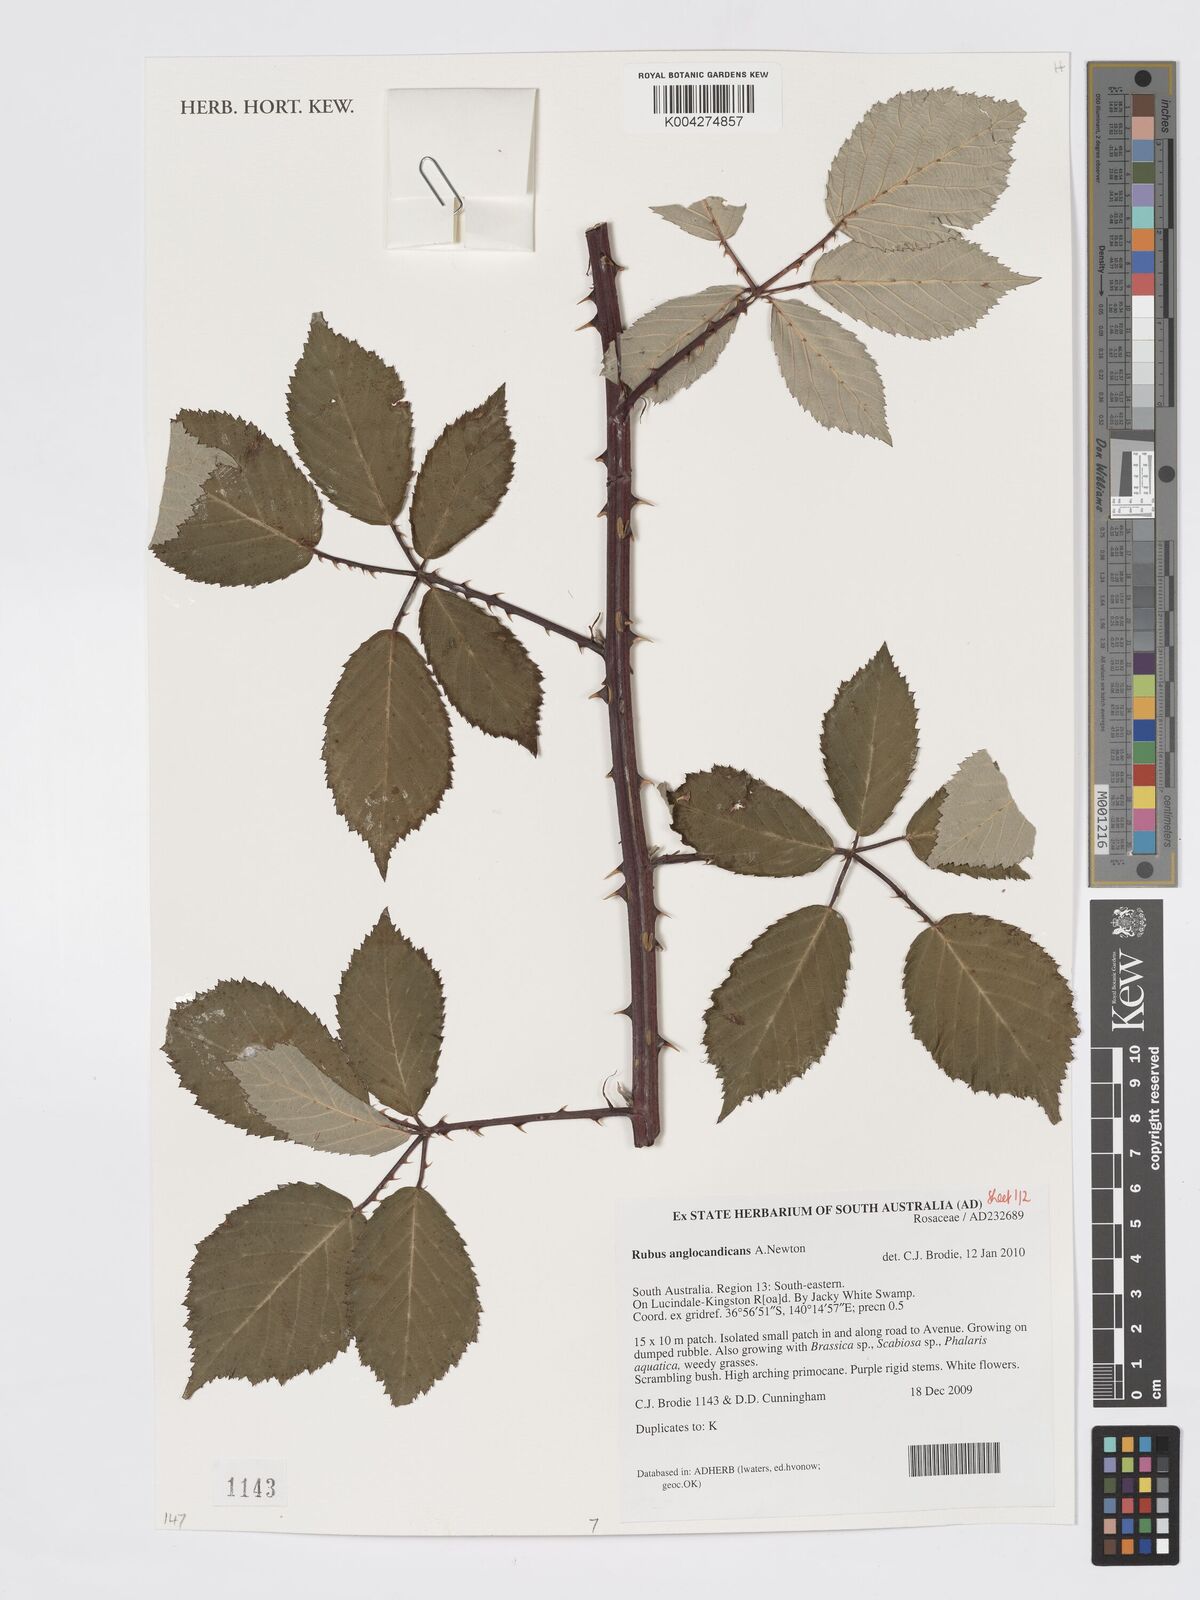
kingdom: Plantae
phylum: Tracheophyta
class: Magnoliopsida
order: Rosales
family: Rosaceae
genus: Rubus
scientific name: Rubus anglocandicans
